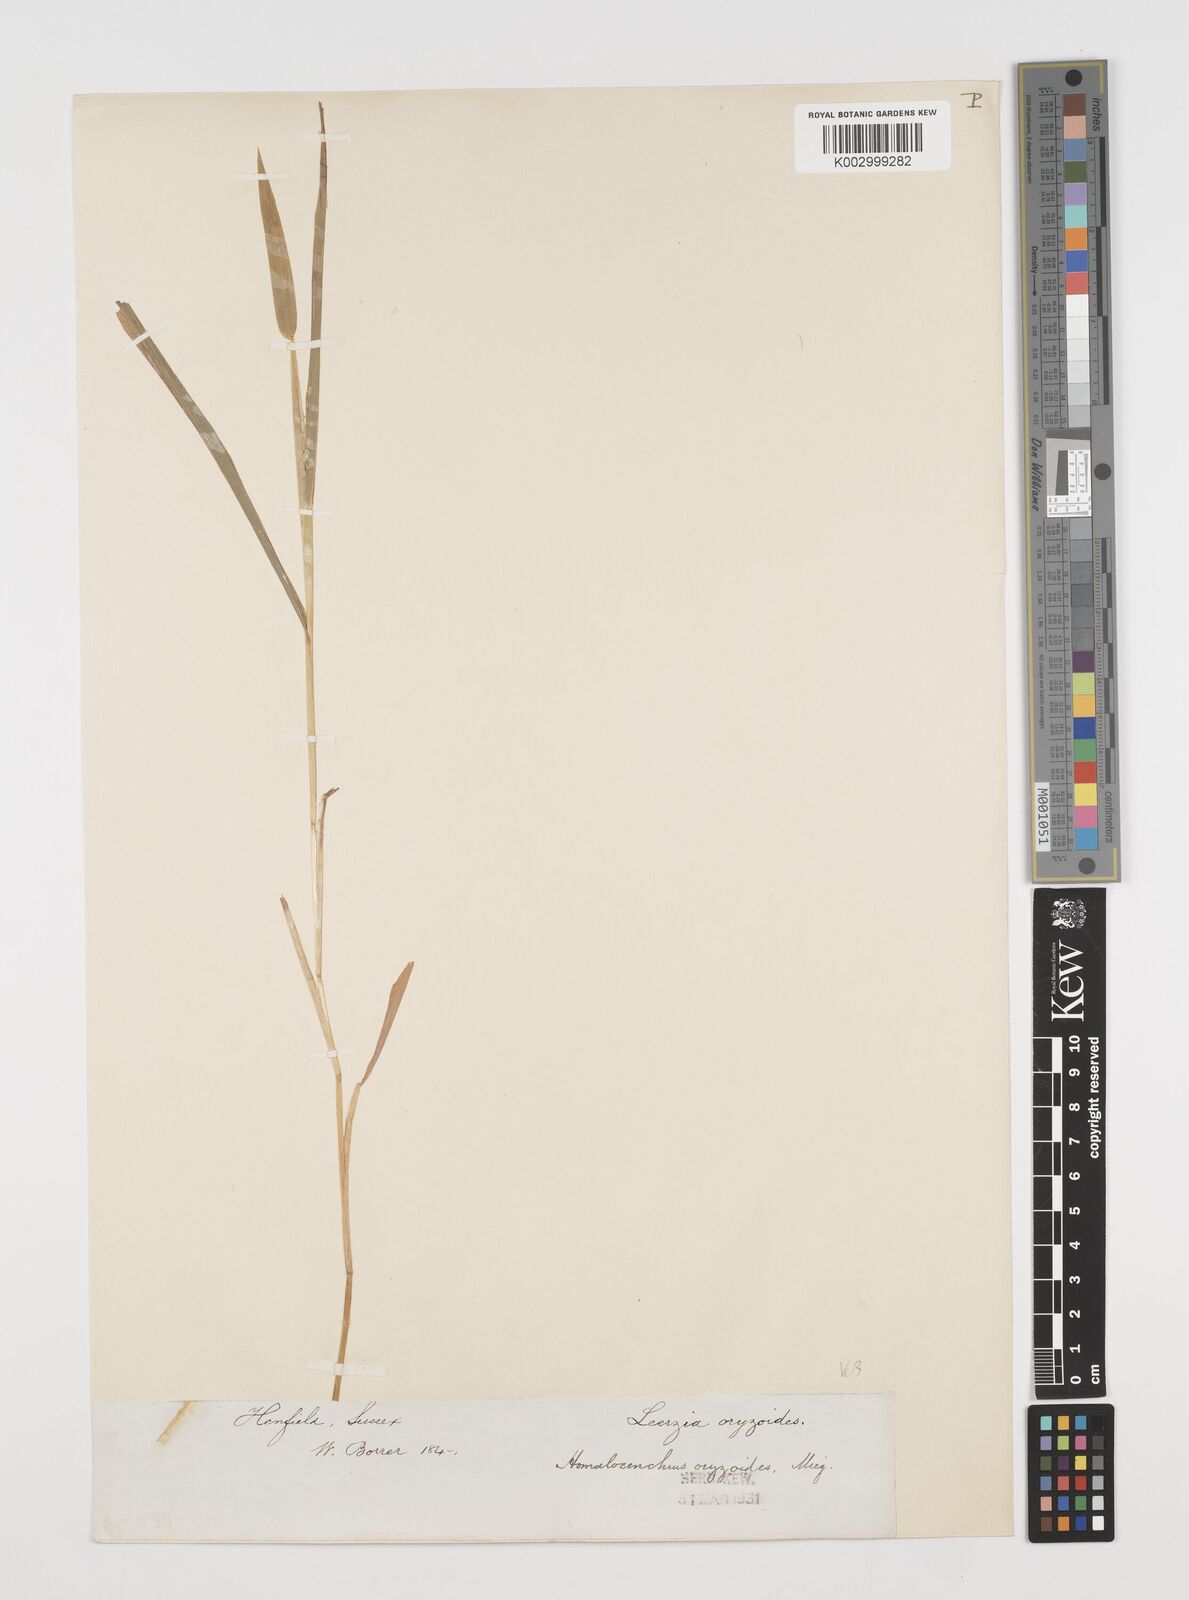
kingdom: Plantae
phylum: Tracheophyta
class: Liliopsida
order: Poales
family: Poaceae
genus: Leersia
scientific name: Leersia oryzoides
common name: Cut-grass
